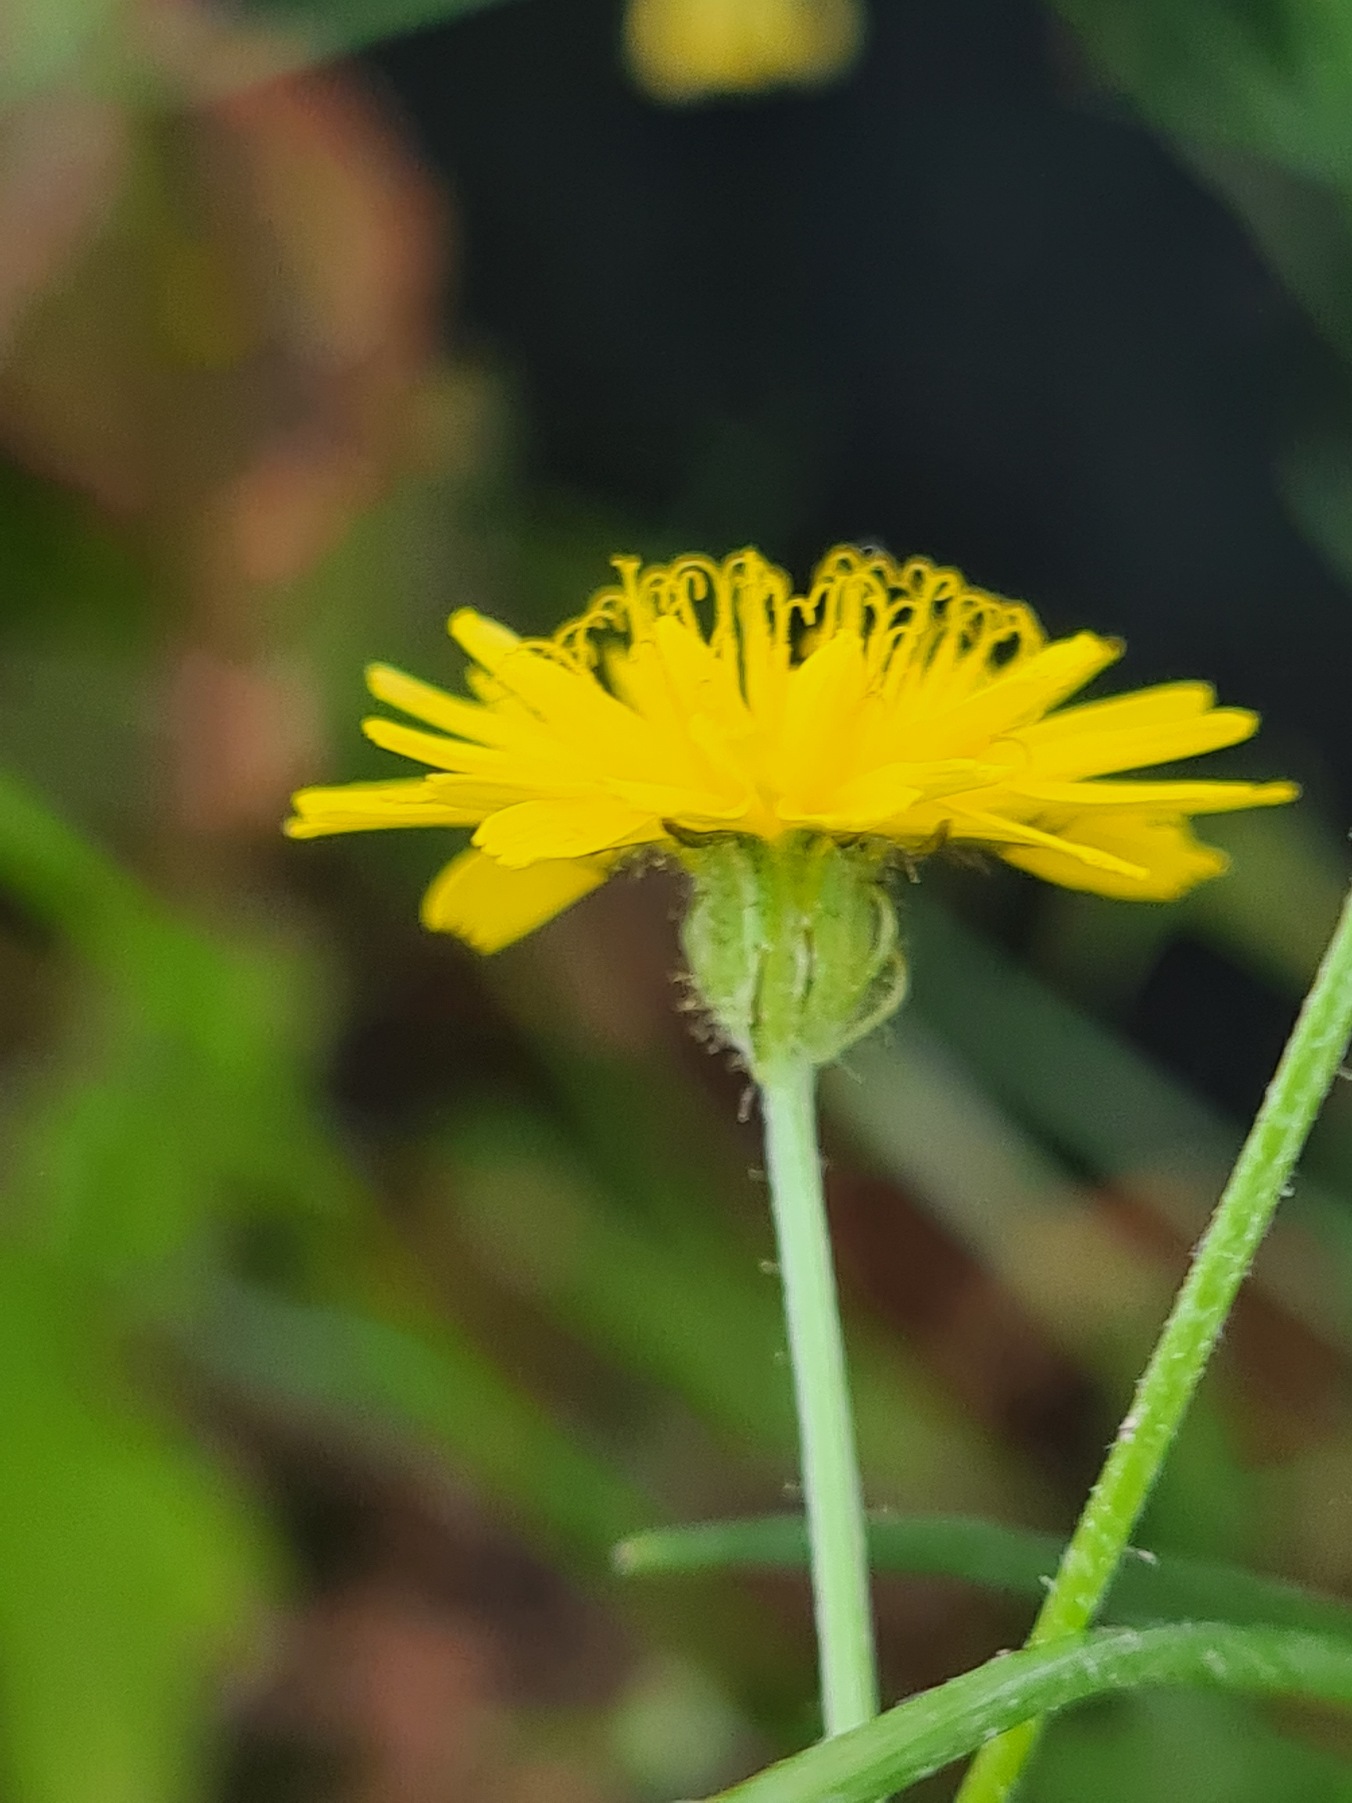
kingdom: Plantae
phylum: Tracheophyta
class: Magnoliopsida
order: Asterales
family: Asteraceae
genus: Crepis
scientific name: Crepis capillaris
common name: Grøn høgeskæg
